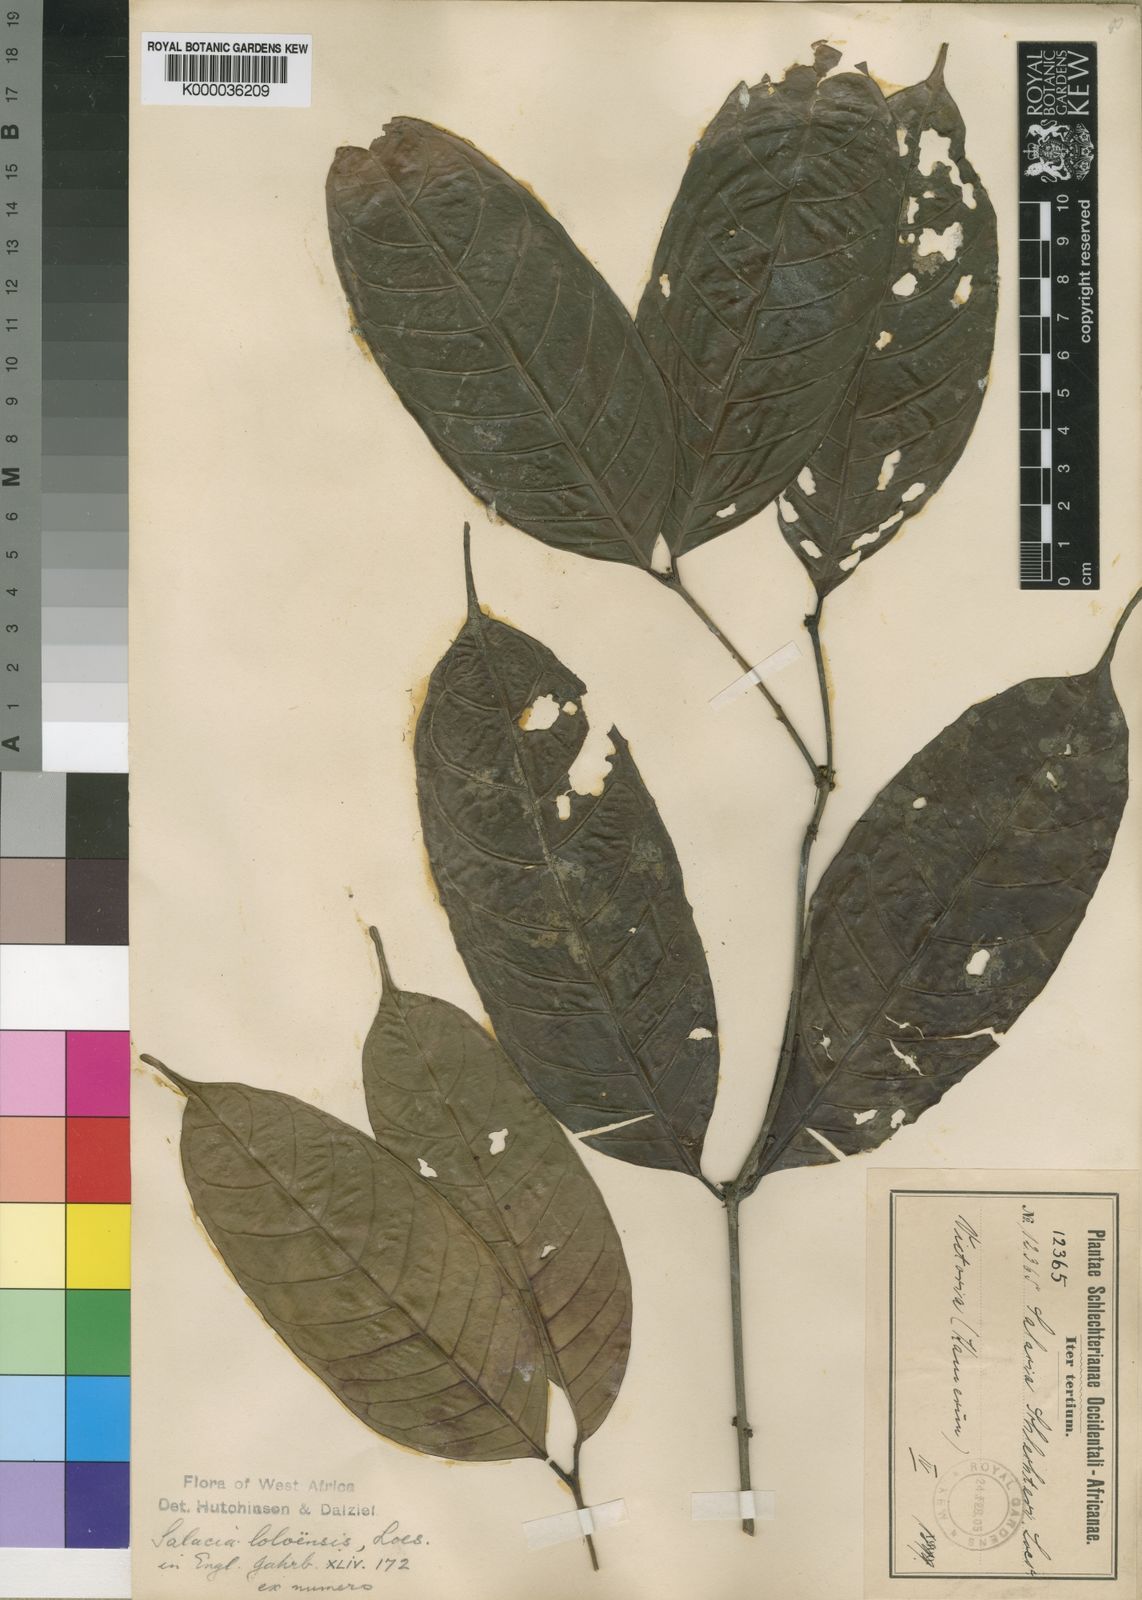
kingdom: Plantae
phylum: Tracheophyta
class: Magnoliopsida
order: Celastrales
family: Celastraceae
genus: Salacia
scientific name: Salacia loloensis
